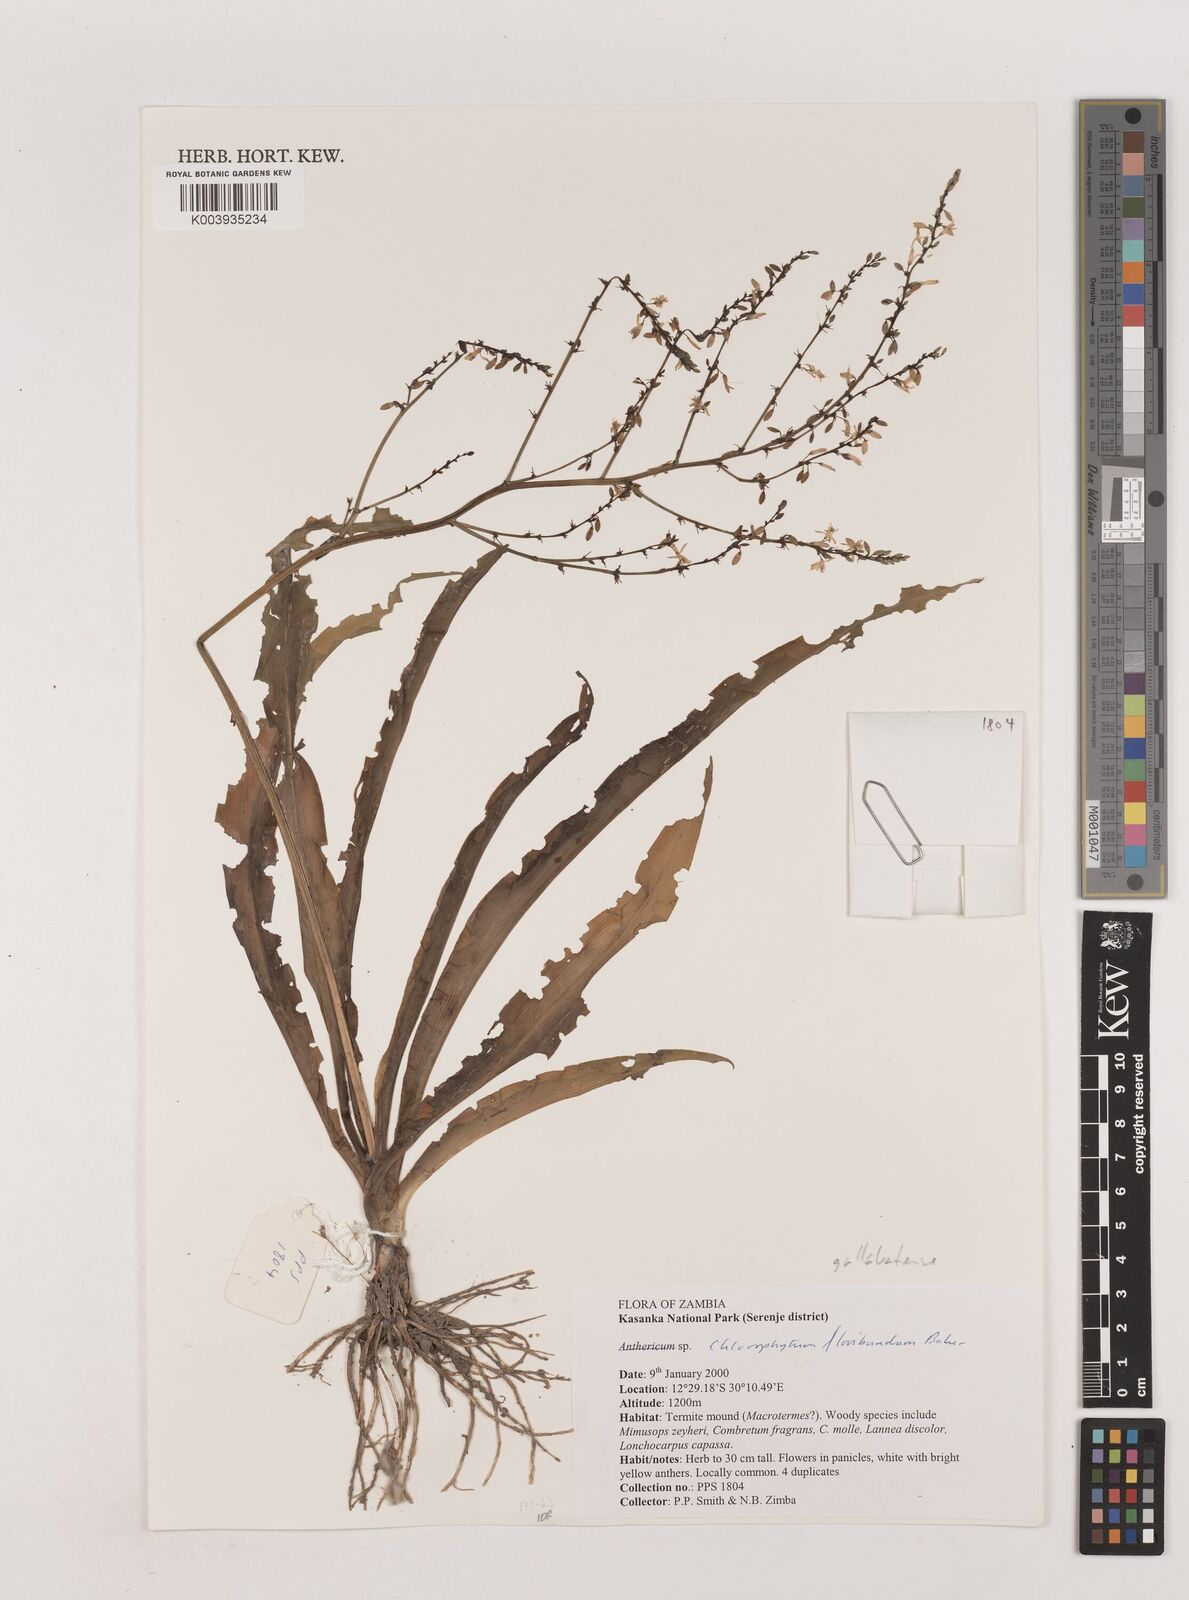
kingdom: Plantae
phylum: Tracheophyta
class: Liliopsida
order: Asparagales
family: Asparagaceae
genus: Chlorophytum
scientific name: Chlorophytum gallabatense
